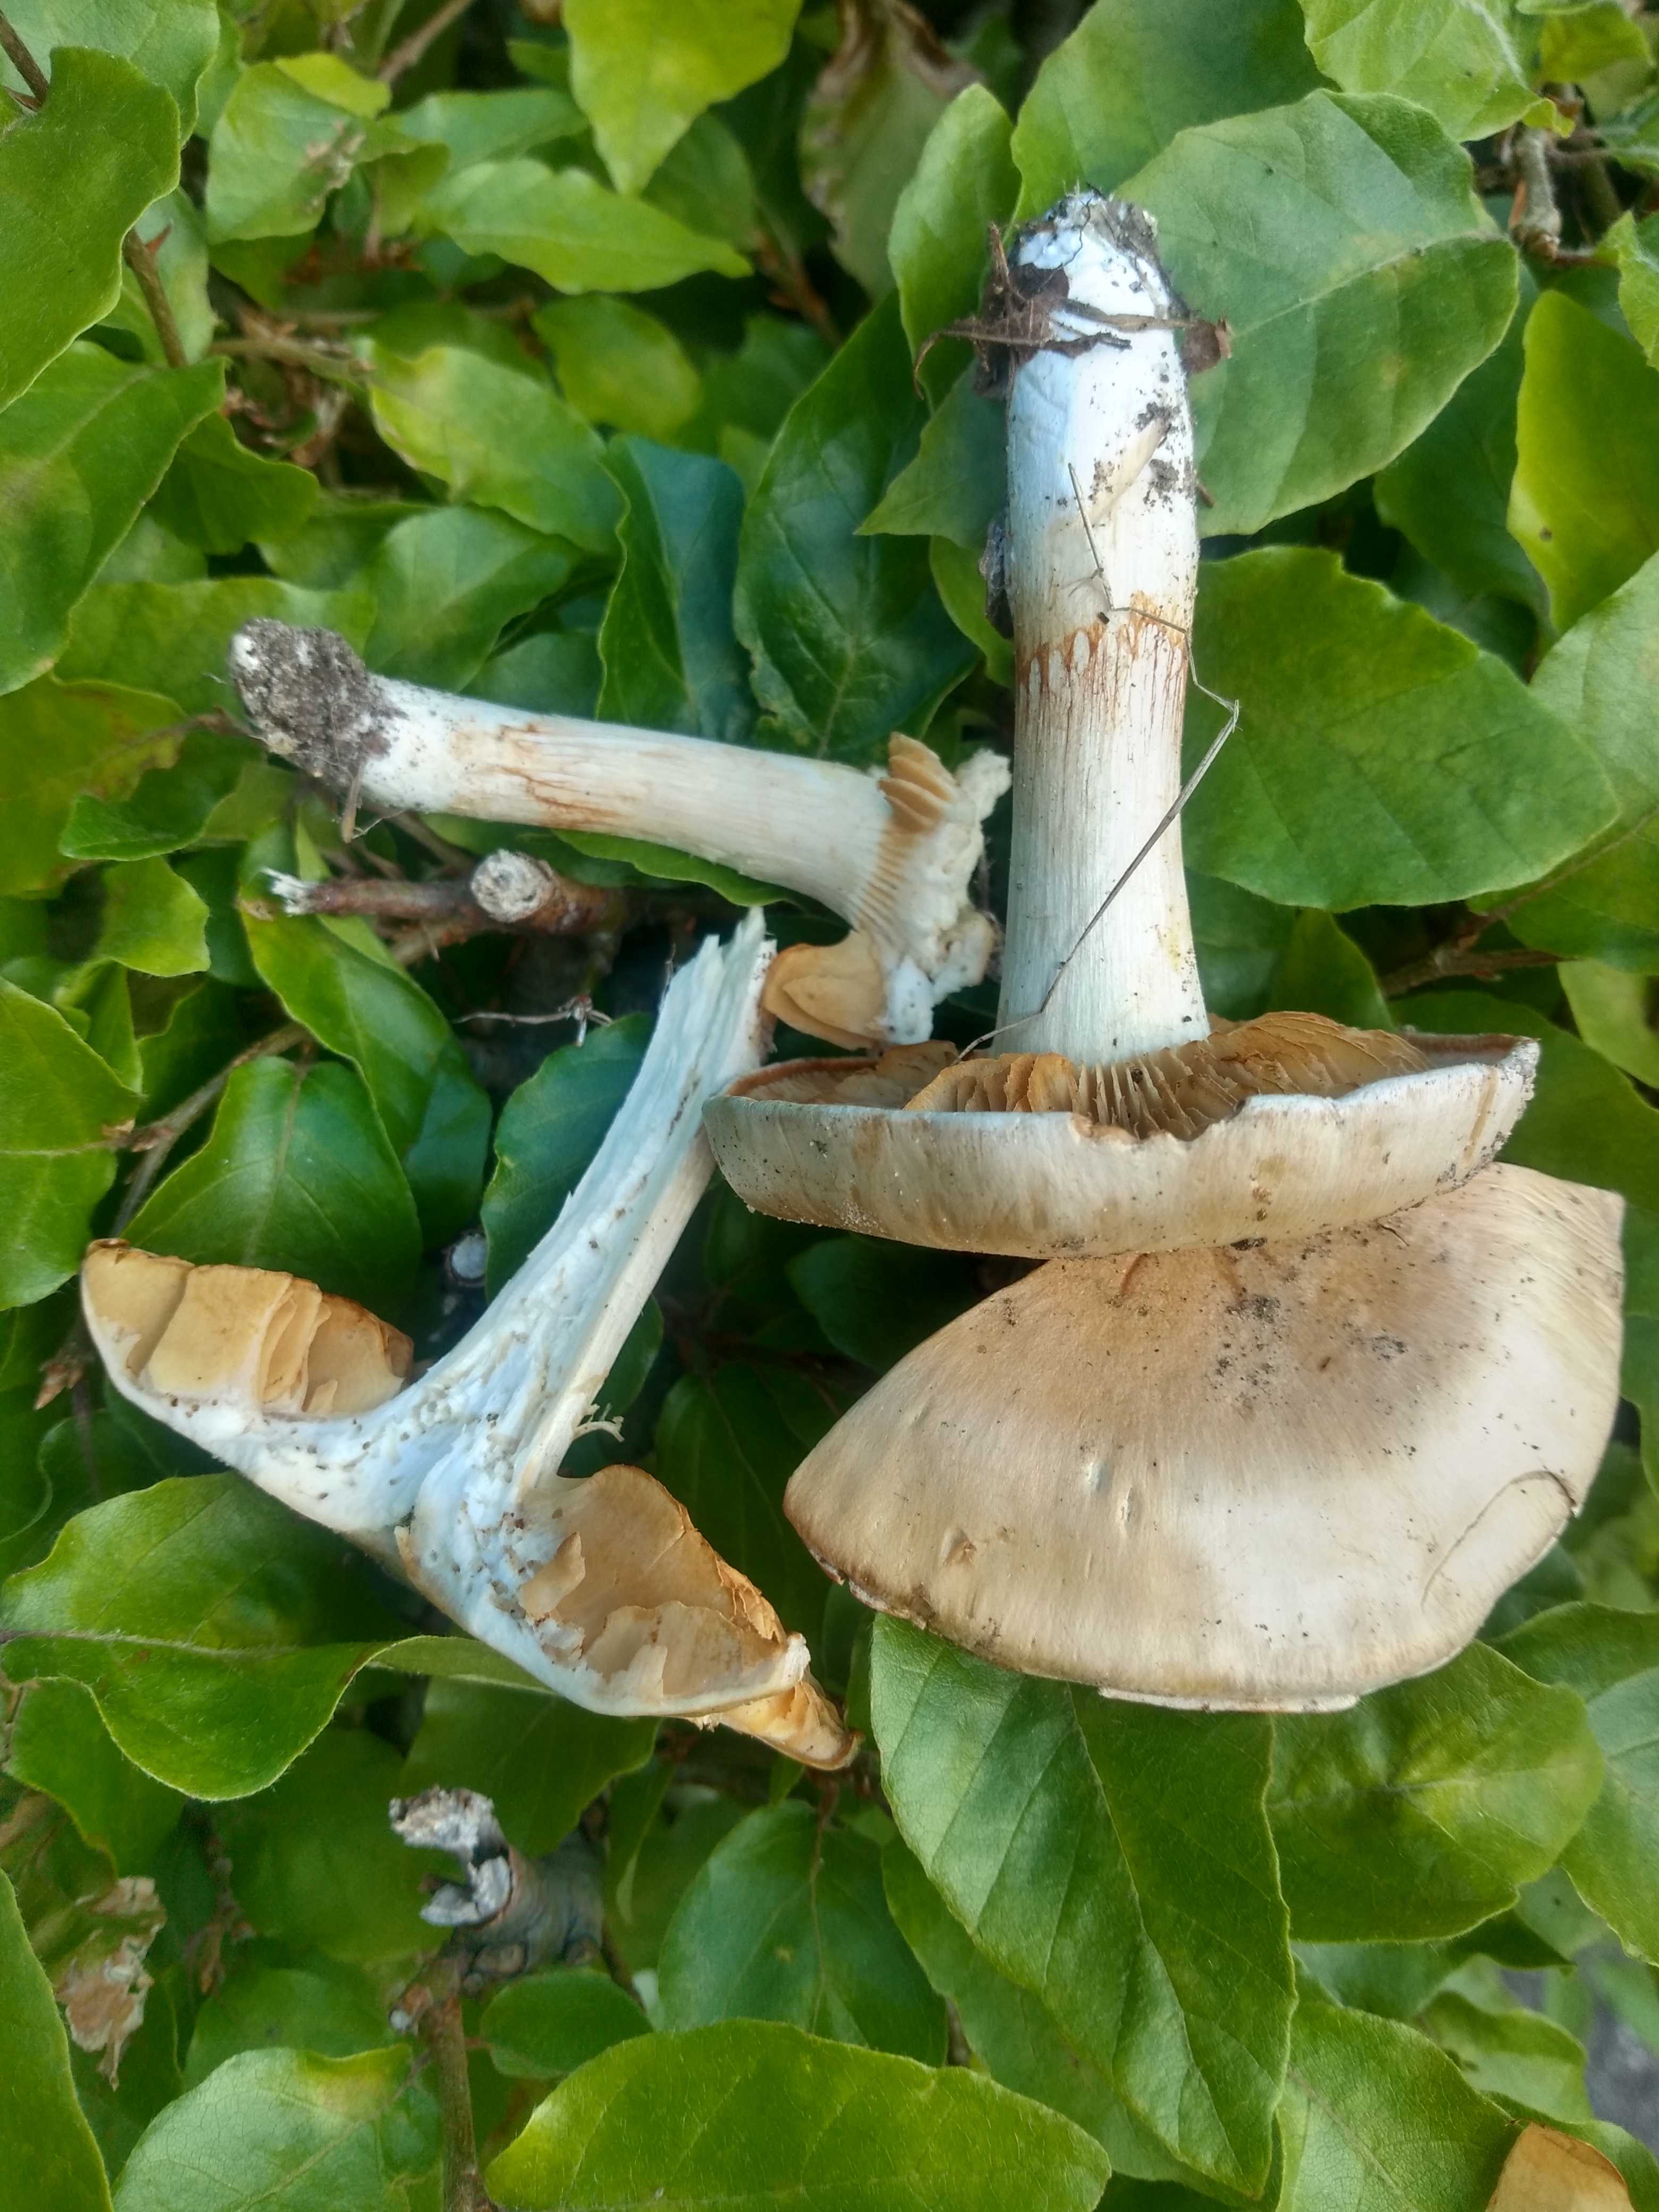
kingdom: Fungi
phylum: Basidiomycota
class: Agaricomycetes
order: Agaricales
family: Cortinariaceae
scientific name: Cortinariaceae
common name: slørhatfamilien
